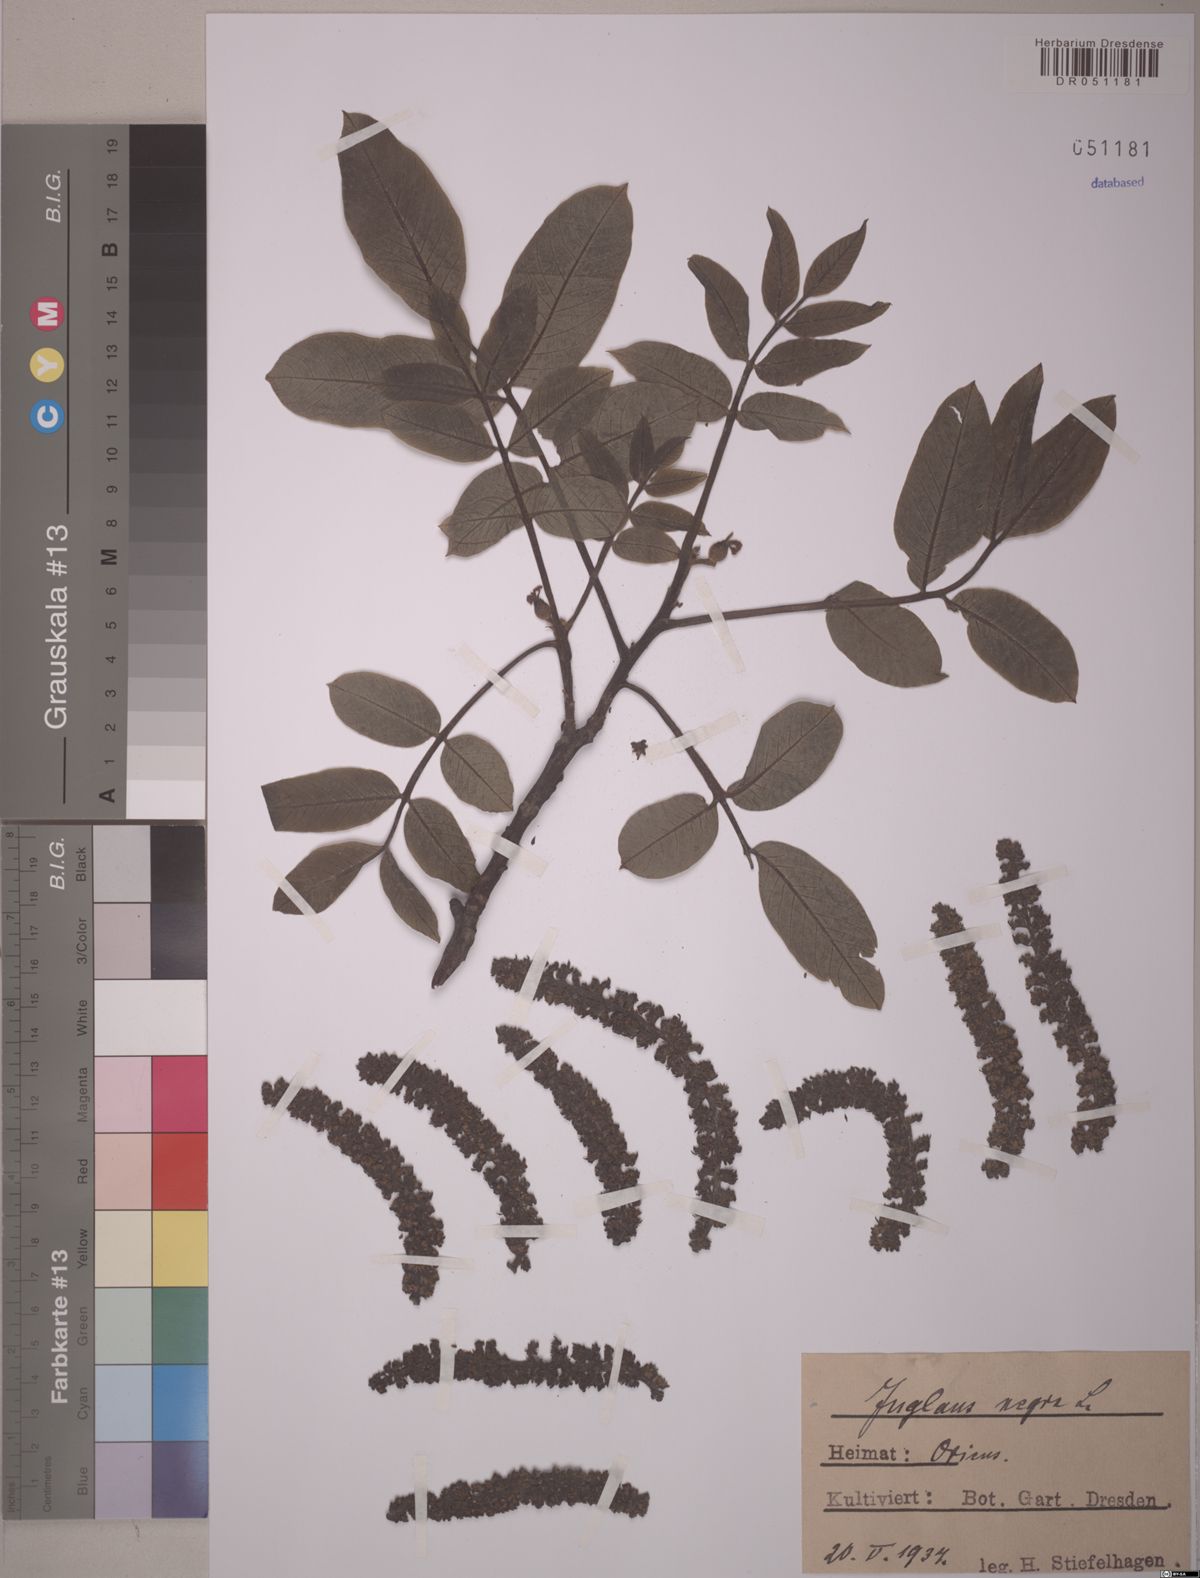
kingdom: Plantae
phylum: Tracheophyta
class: Magnoliopsida
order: Fagales
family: Juglandaceae
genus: Juglans
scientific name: Juglans regia
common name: Walnut
